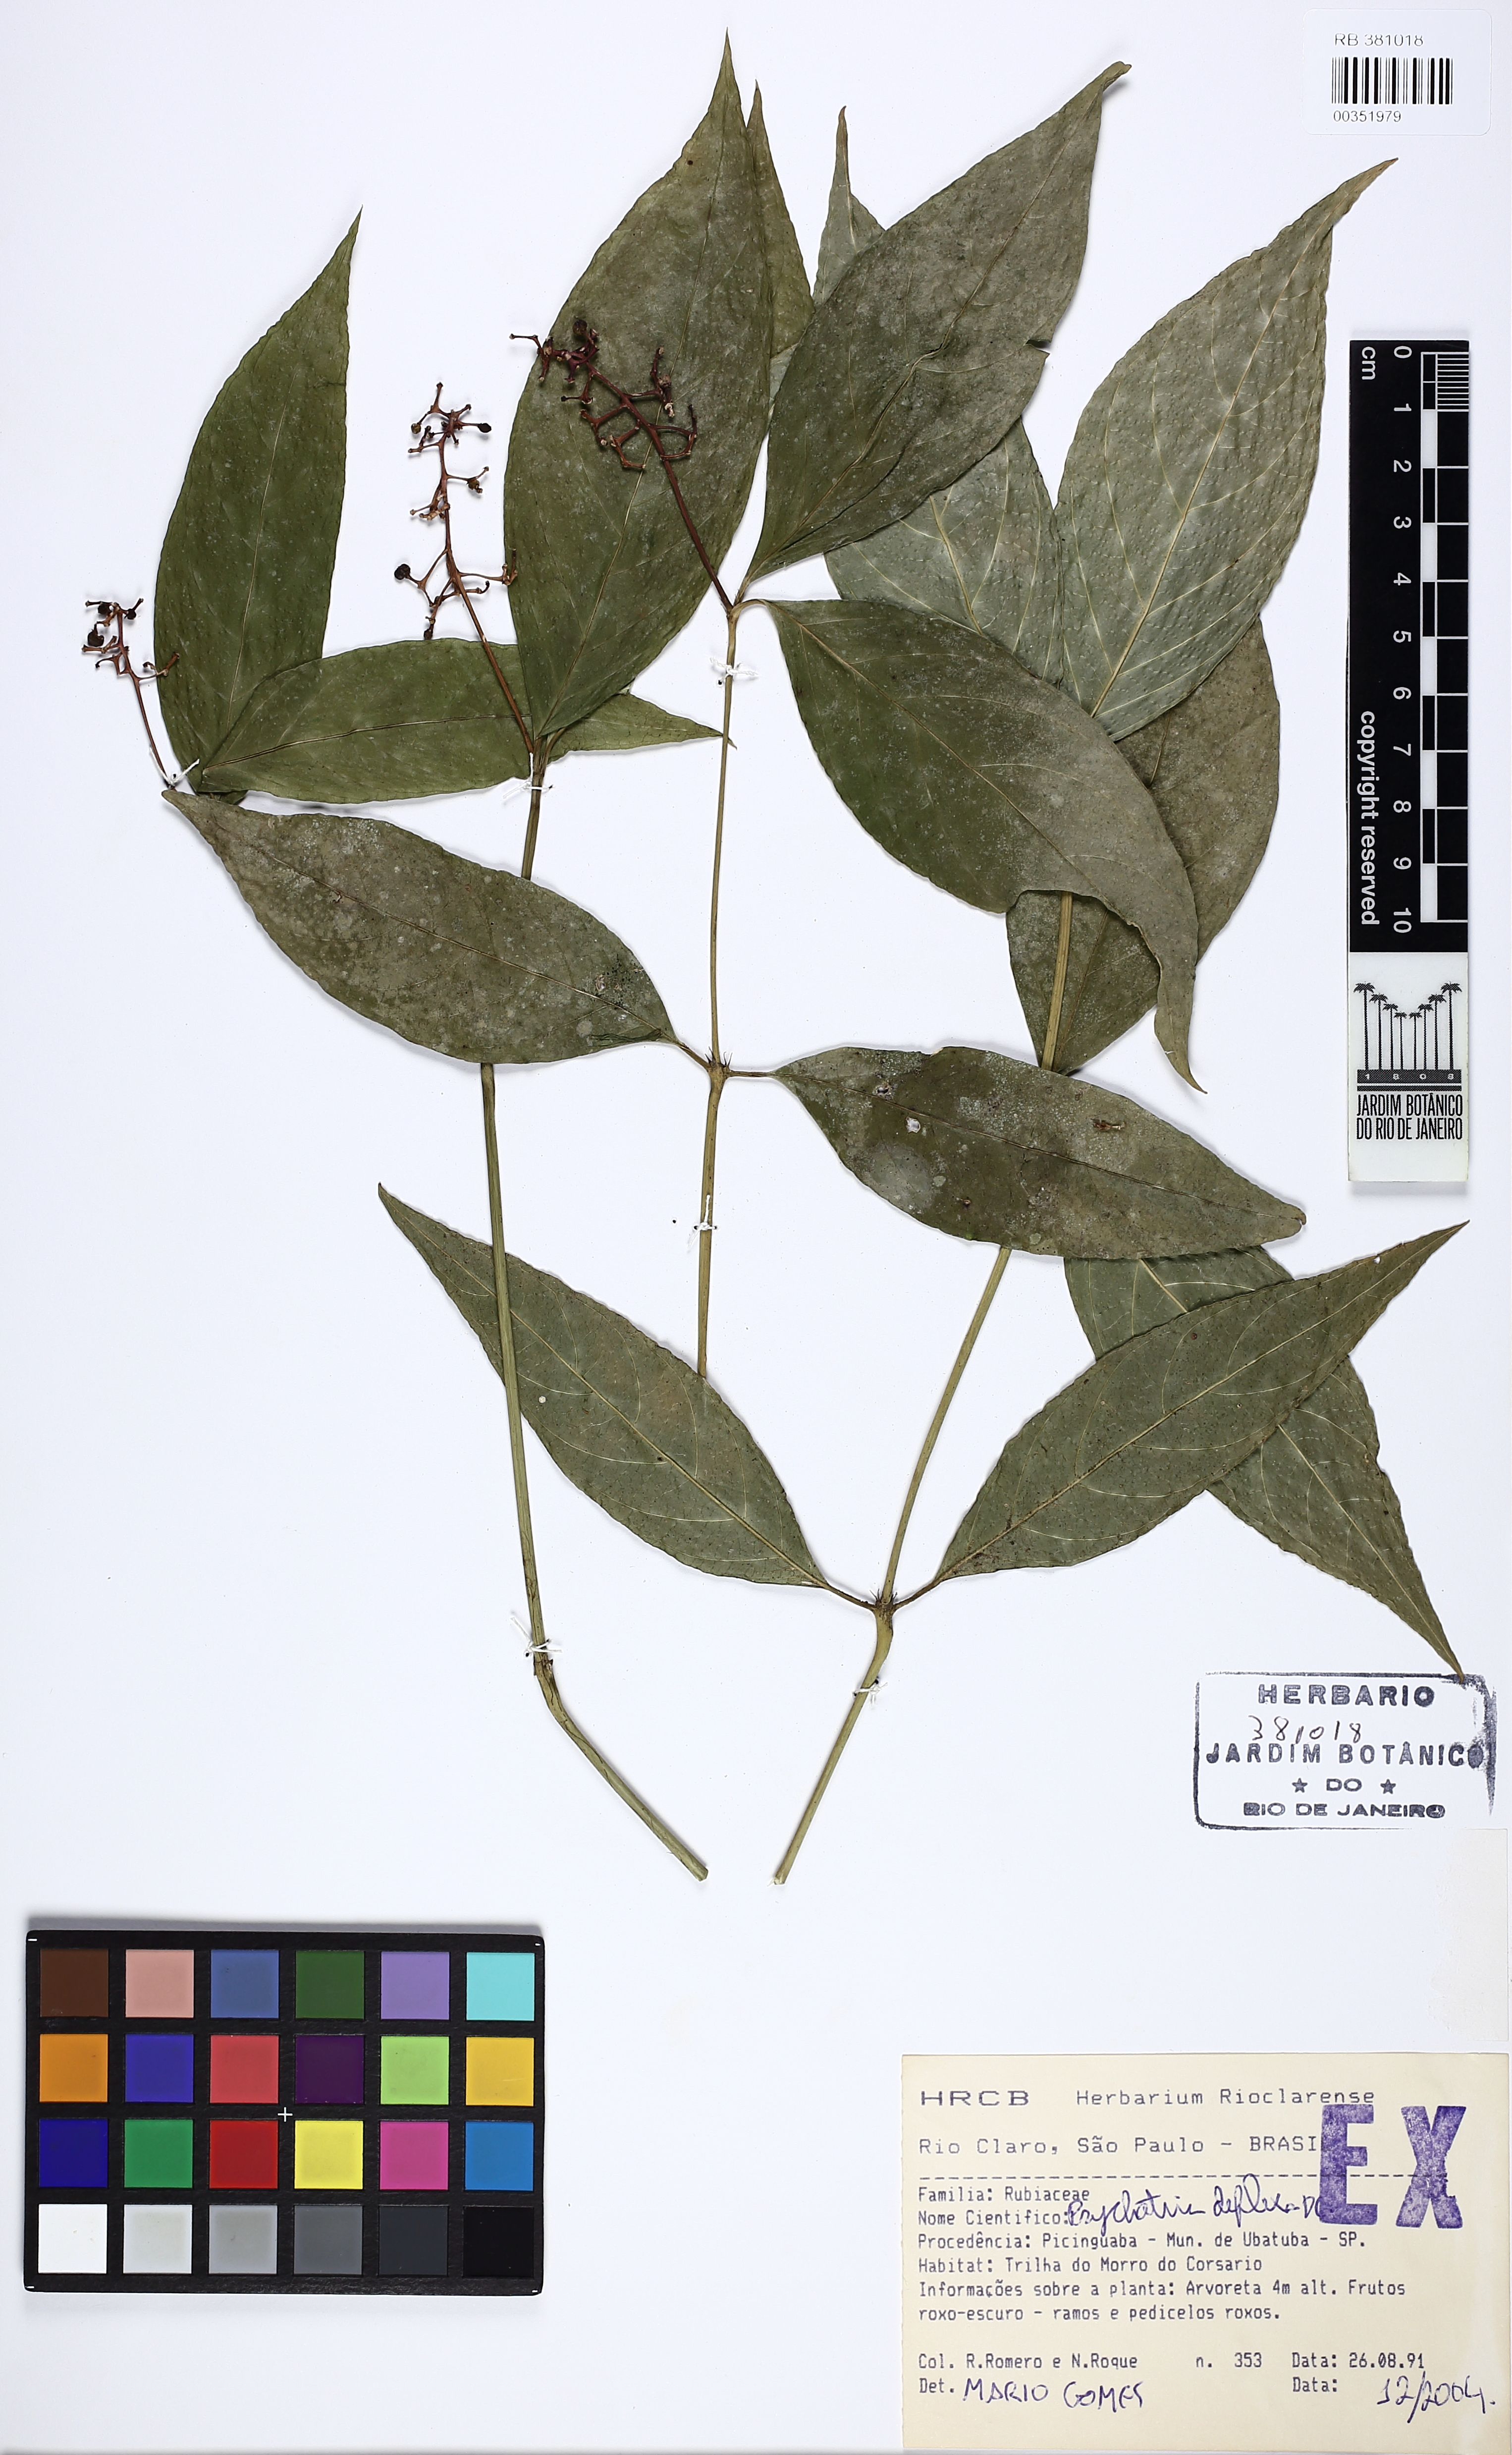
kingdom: Plantae
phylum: Tracheophyta
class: Magnoliopsida
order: Gentianales
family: Rubiaceae
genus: Palicourea
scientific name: Palicourea deflexa
